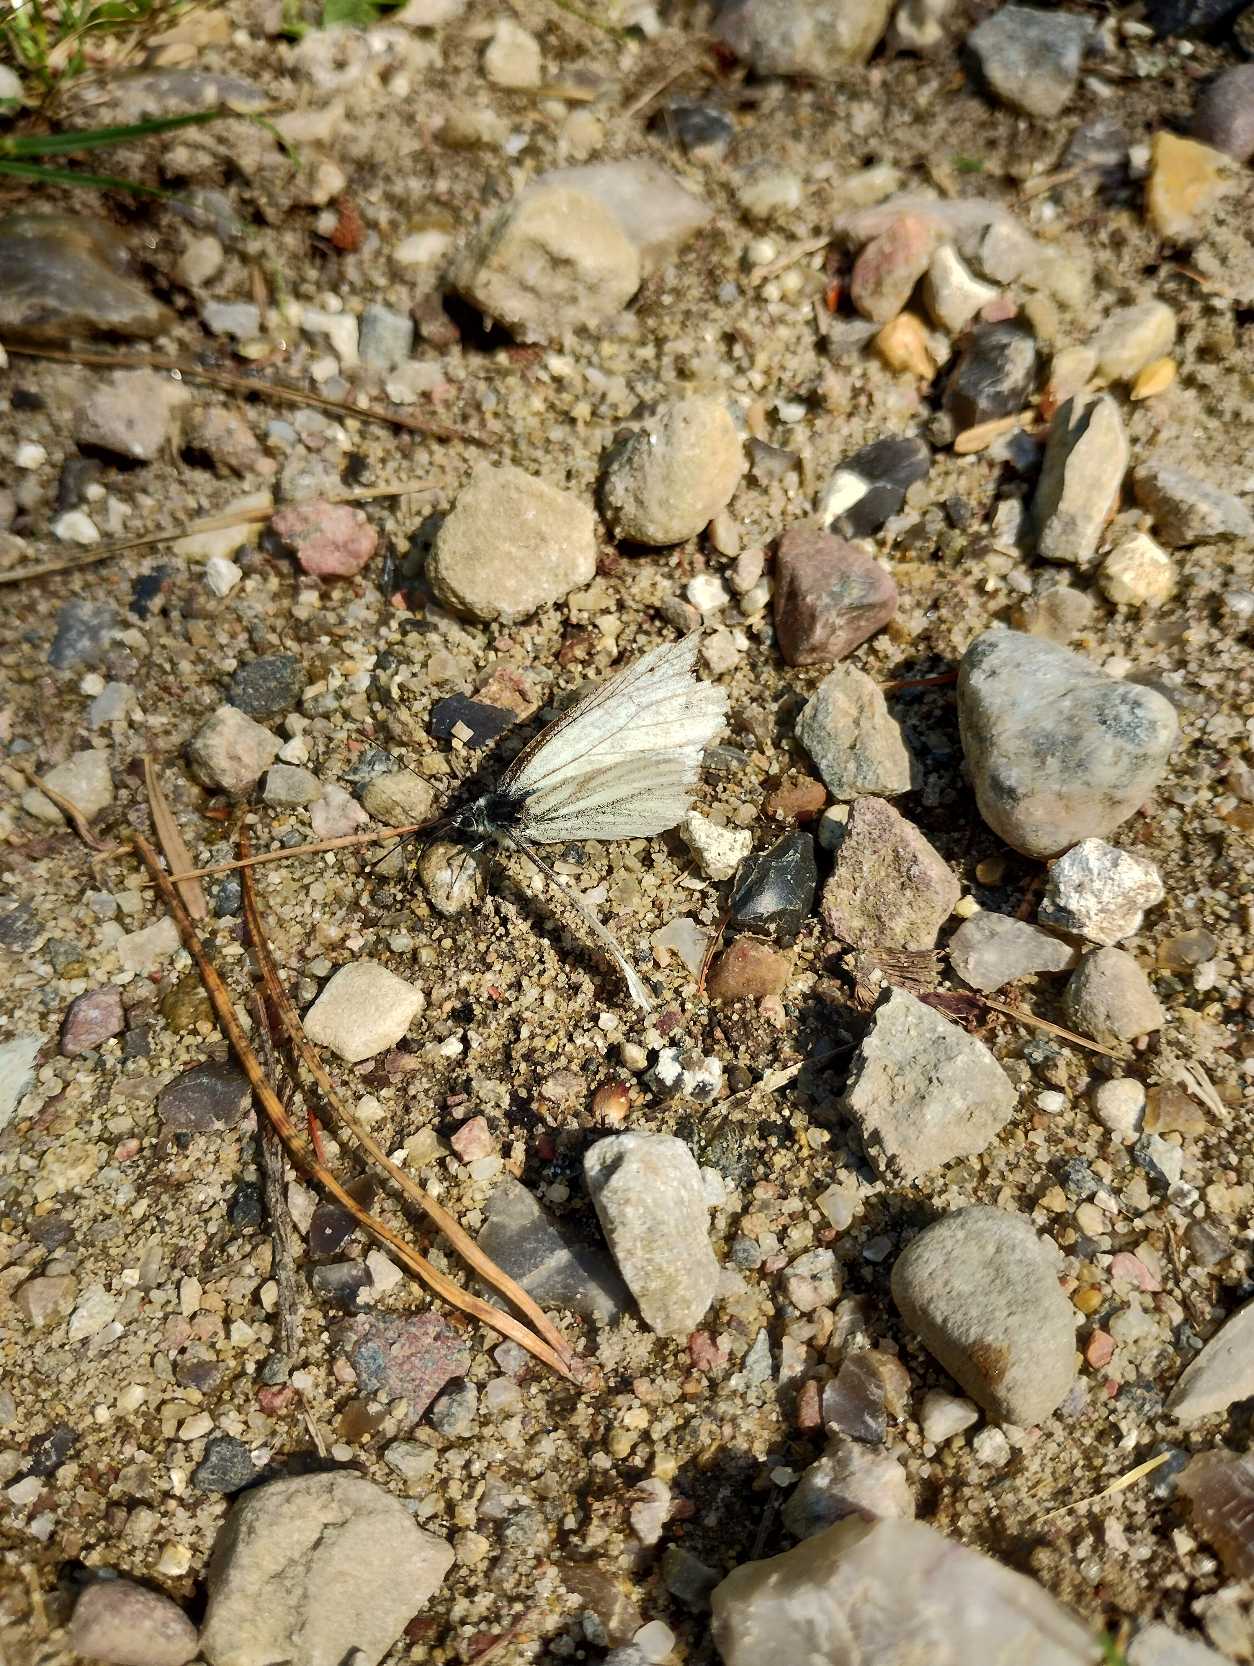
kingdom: Animalia
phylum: Arthropoda
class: Insecta
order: Lepidoptera
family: Pieridae
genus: Pieris
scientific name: Pieris napi
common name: Grønåret kålsommerfugl
